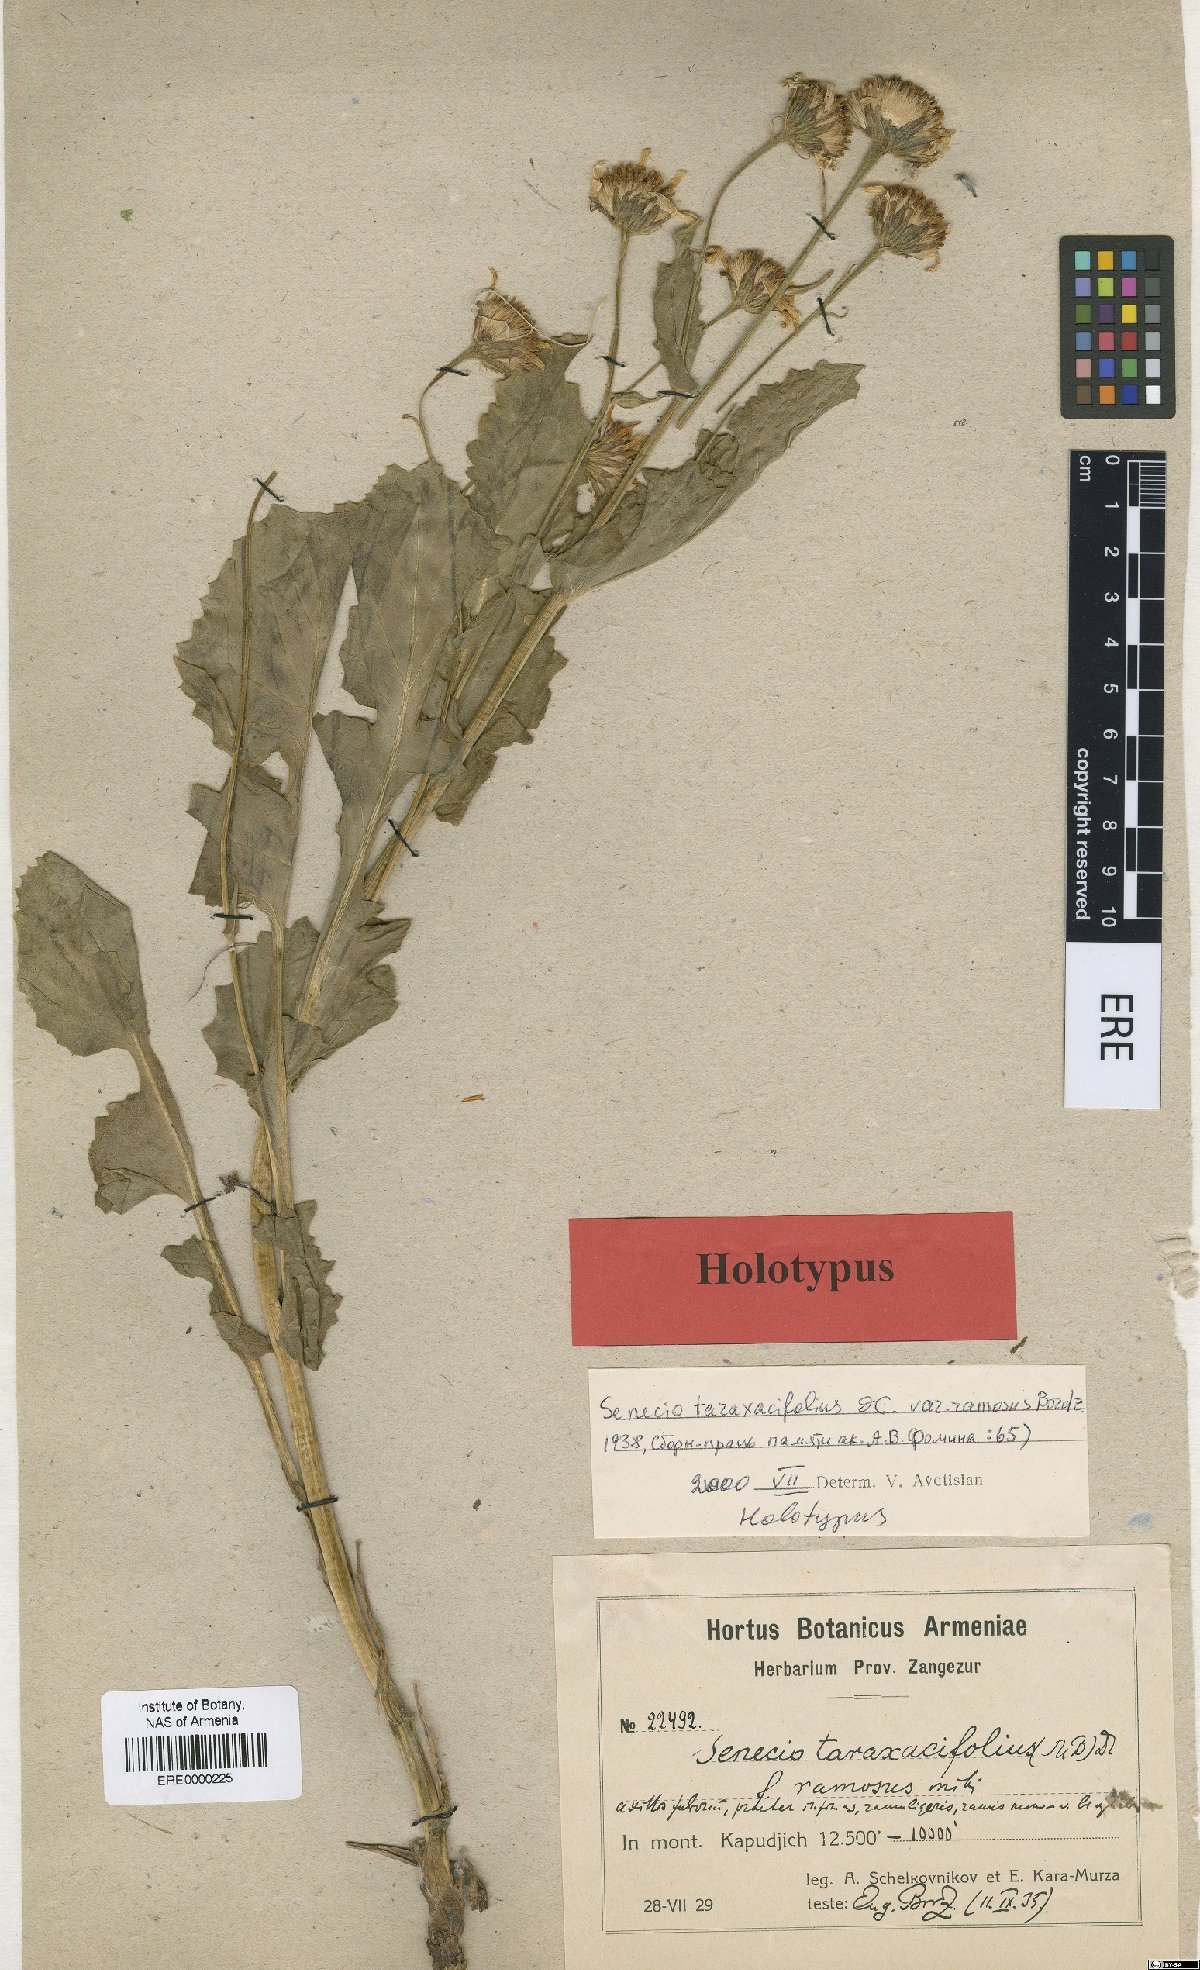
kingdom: Plantae
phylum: Tracheophyta
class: Magnoliopsida
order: Asterales
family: Asteraceae
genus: Turanecio
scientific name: Turanecio taraxacifolius
